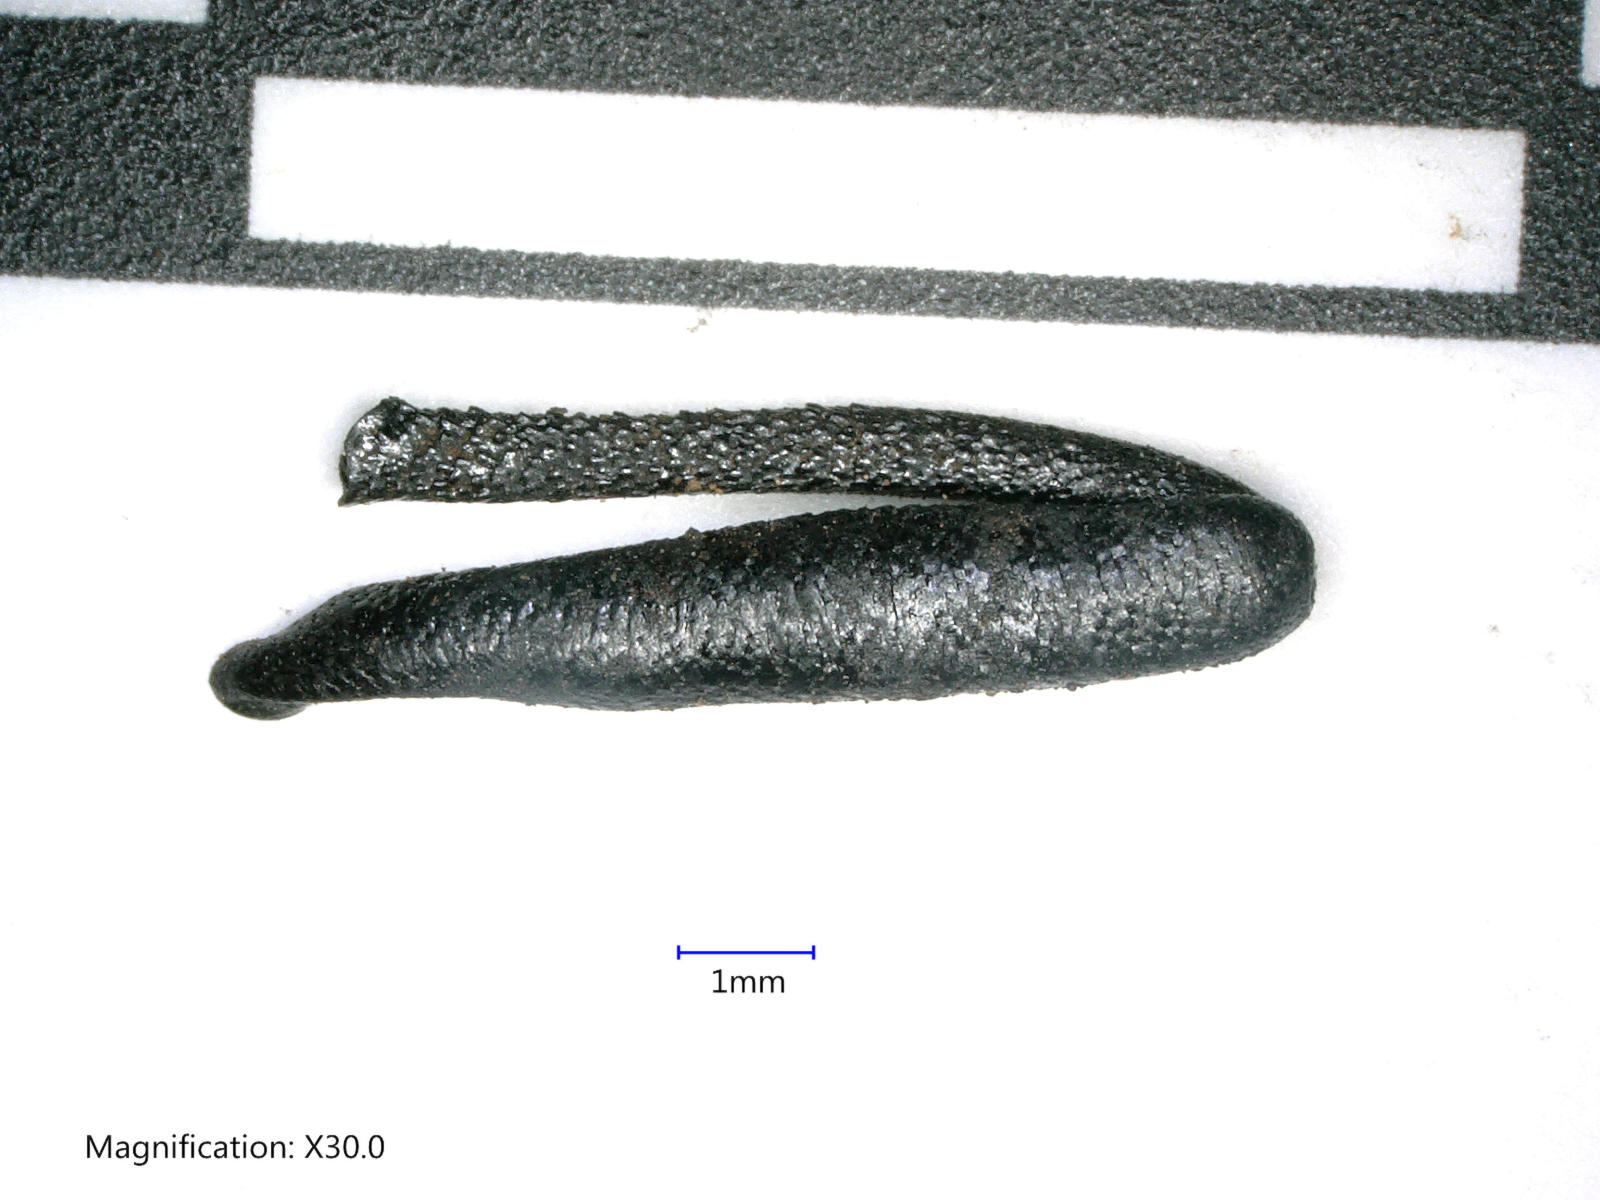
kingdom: Animalia
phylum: Arthropoda
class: Insecta
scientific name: Insecta
